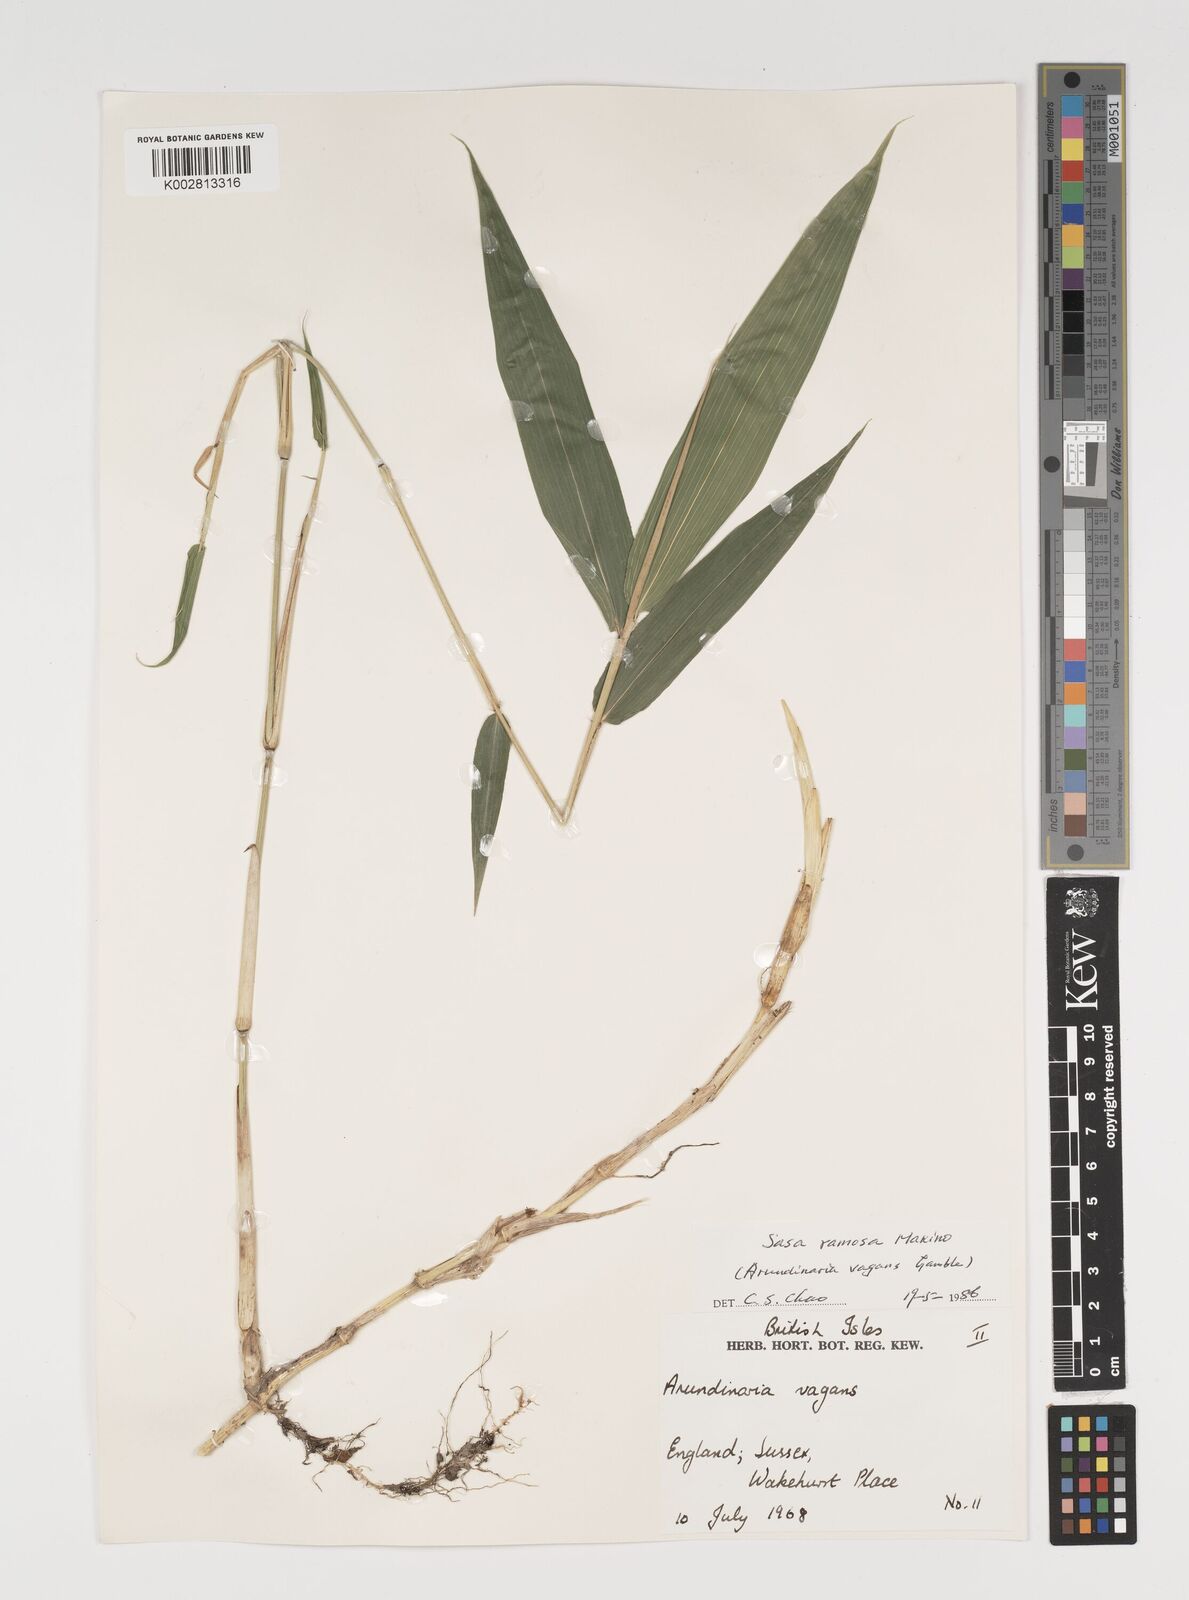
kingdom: Plantae
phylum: Tracheophyta
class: Liliopsida
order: Poales
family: Poaceae
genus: Sasaella
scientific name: Sasaella ramosa
